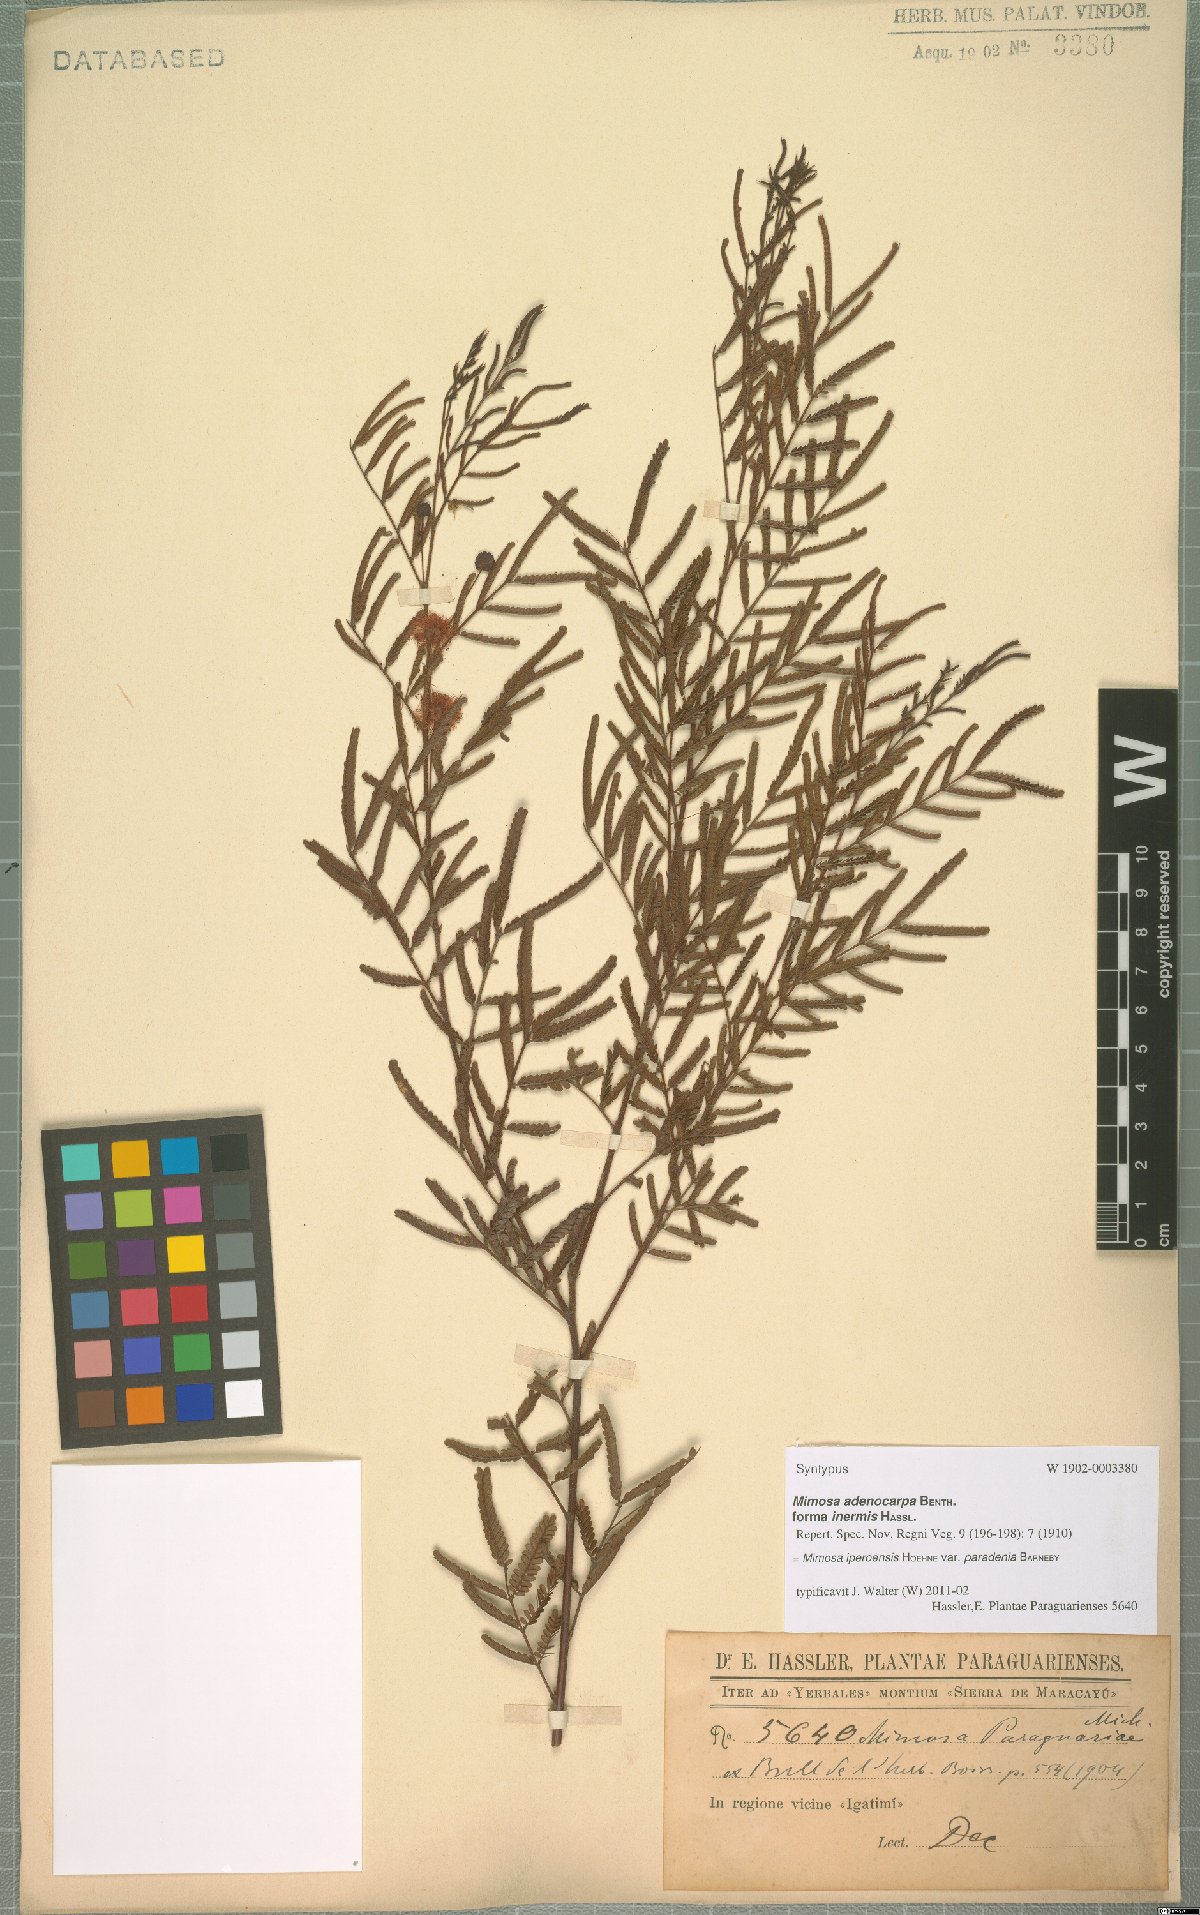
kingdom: Plantae
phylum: Tracheophyta
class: Magnoliopsida
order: Fabales
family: Fabaceae
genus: Mimosa
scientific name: Mimosa iperoensis
